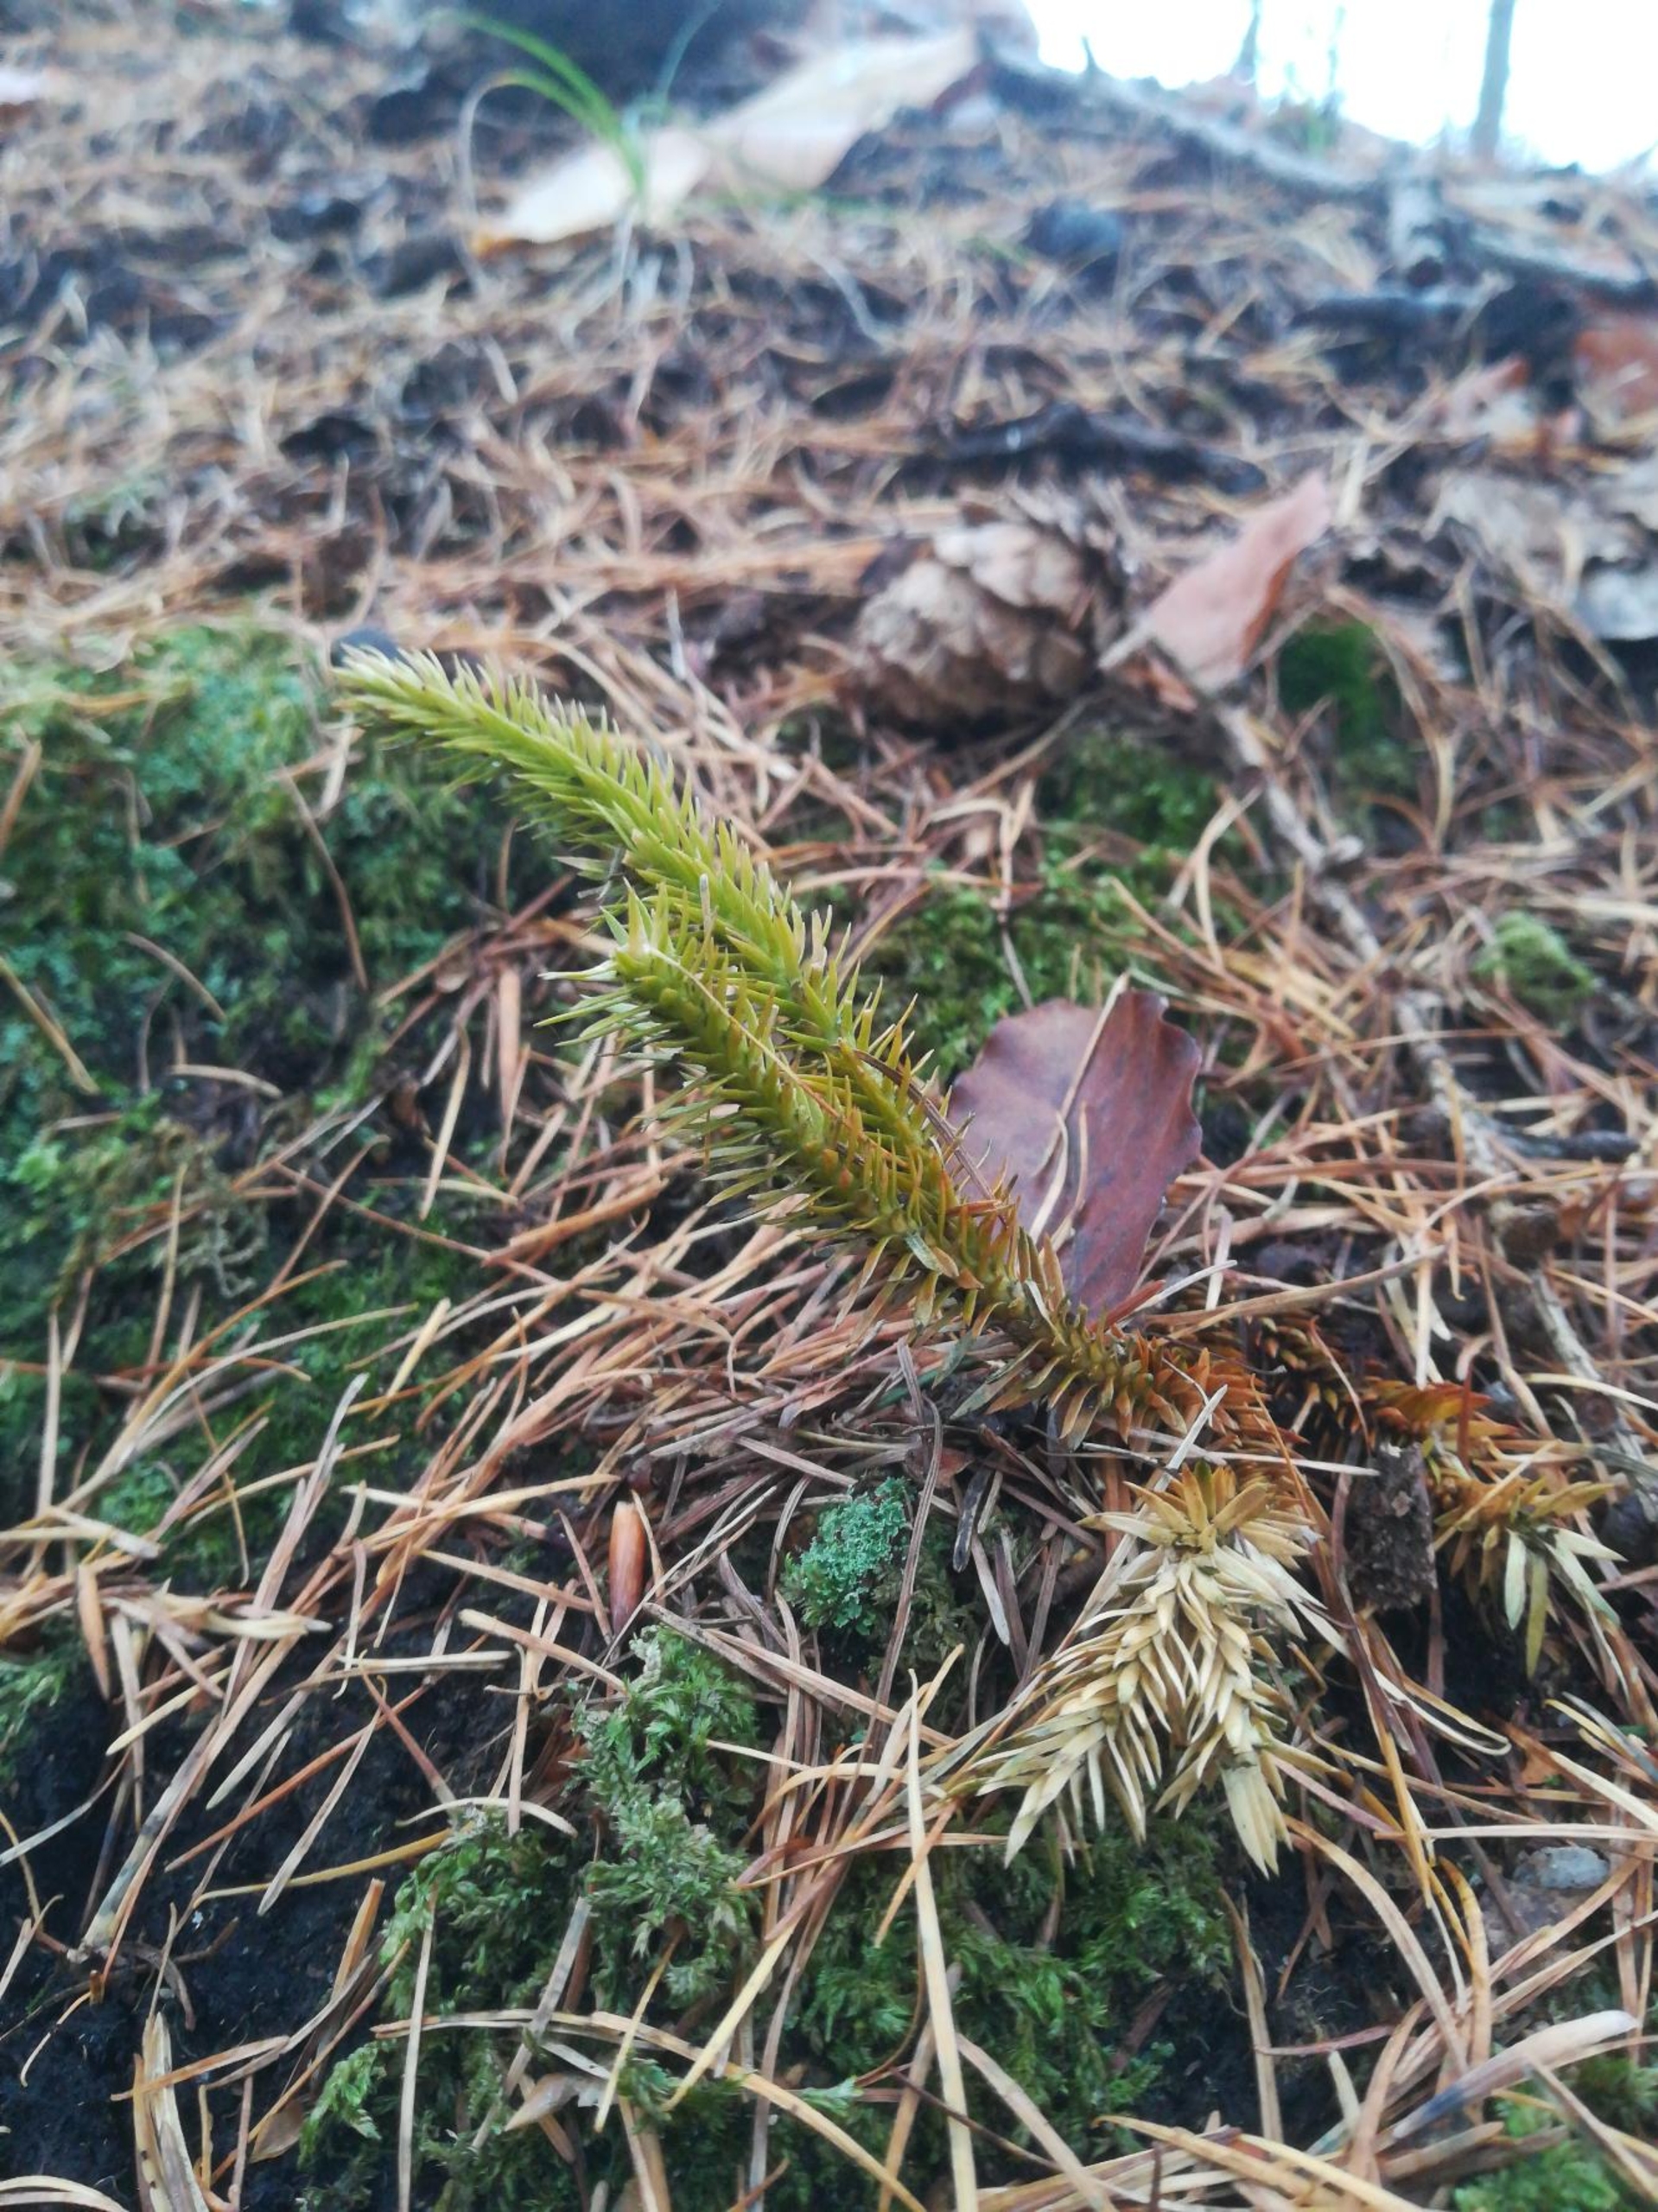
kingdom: Plantae
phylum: Tracheophyta
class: Lycopodiopsida
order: Lycopodiales
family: Lycopodiaceae
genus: Huperzia
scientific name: Huperzia selago
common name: Otteradet ulvefod
